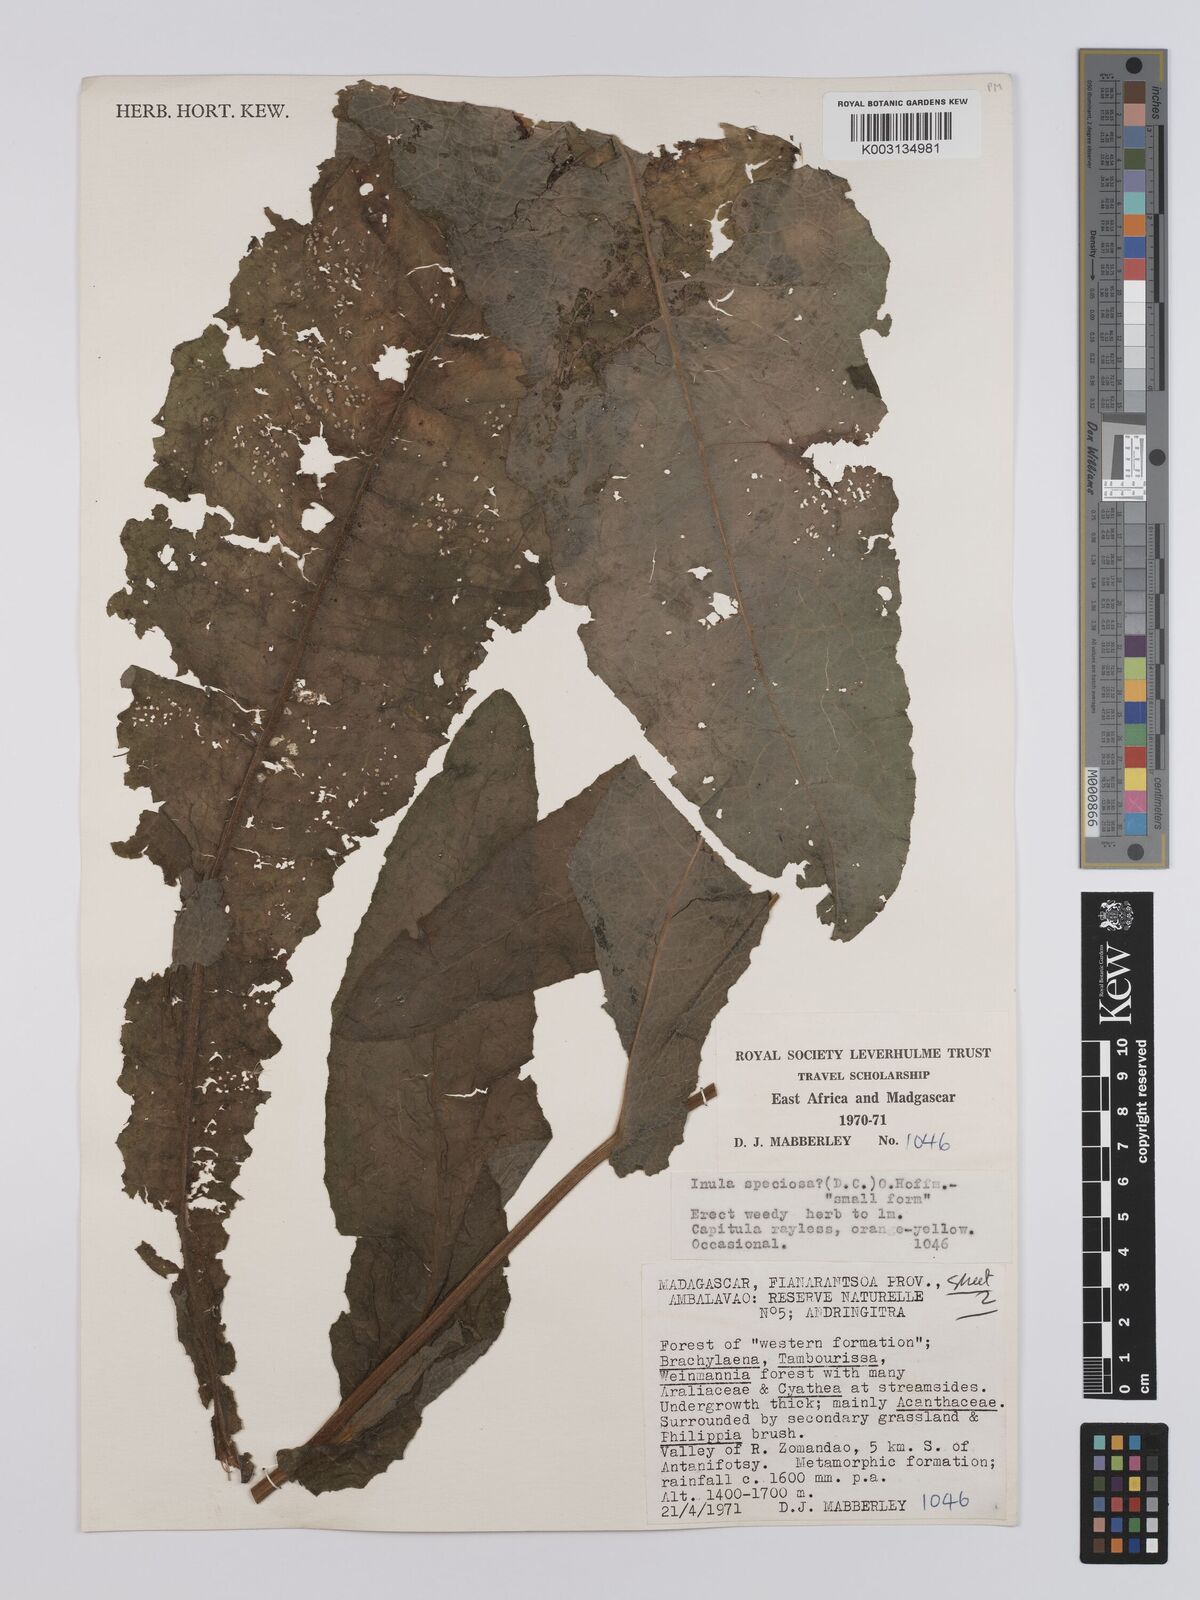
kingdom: Plantae
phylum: Tracheophyta
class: Magnoliopsida
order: Asterales
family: Asteraceae
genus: Inula
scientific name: Inula speciosa
